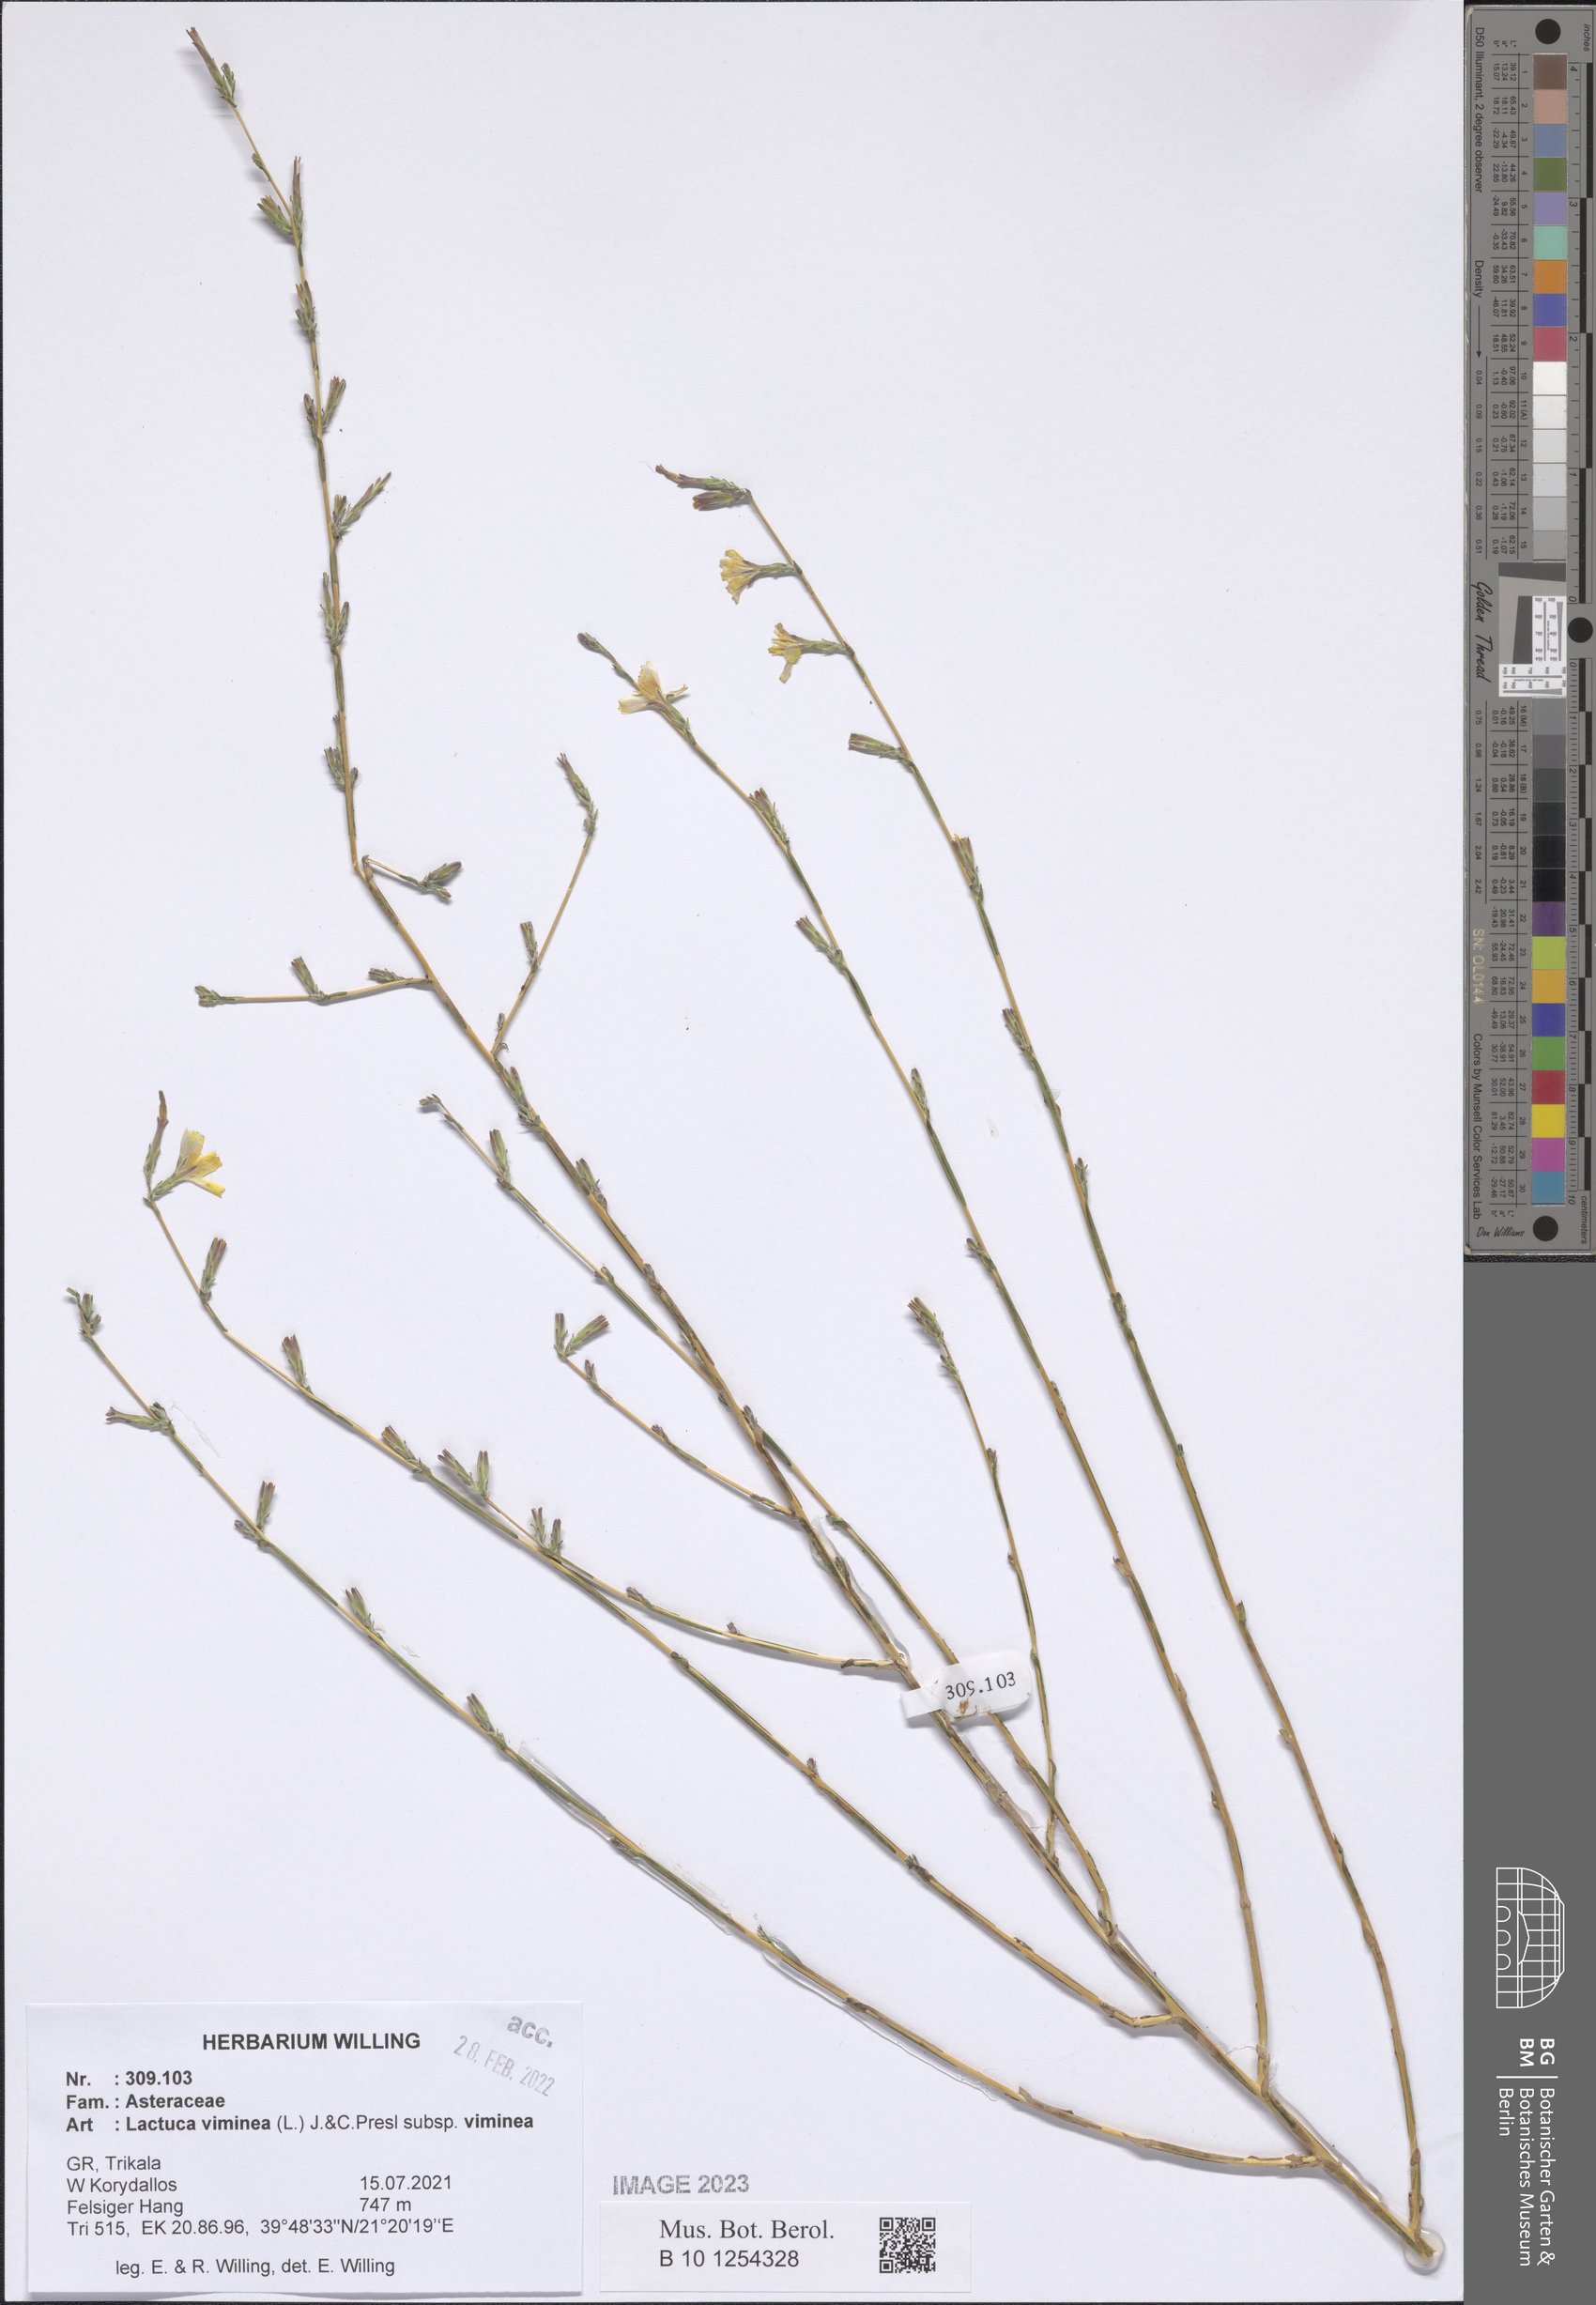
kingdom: Plantae
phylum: Tracheophyta
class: Magnoliopsida
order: Asterales
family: Asteraceae
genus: Lactuca
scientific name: Lactuca viminea
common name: Pliant lettuce
